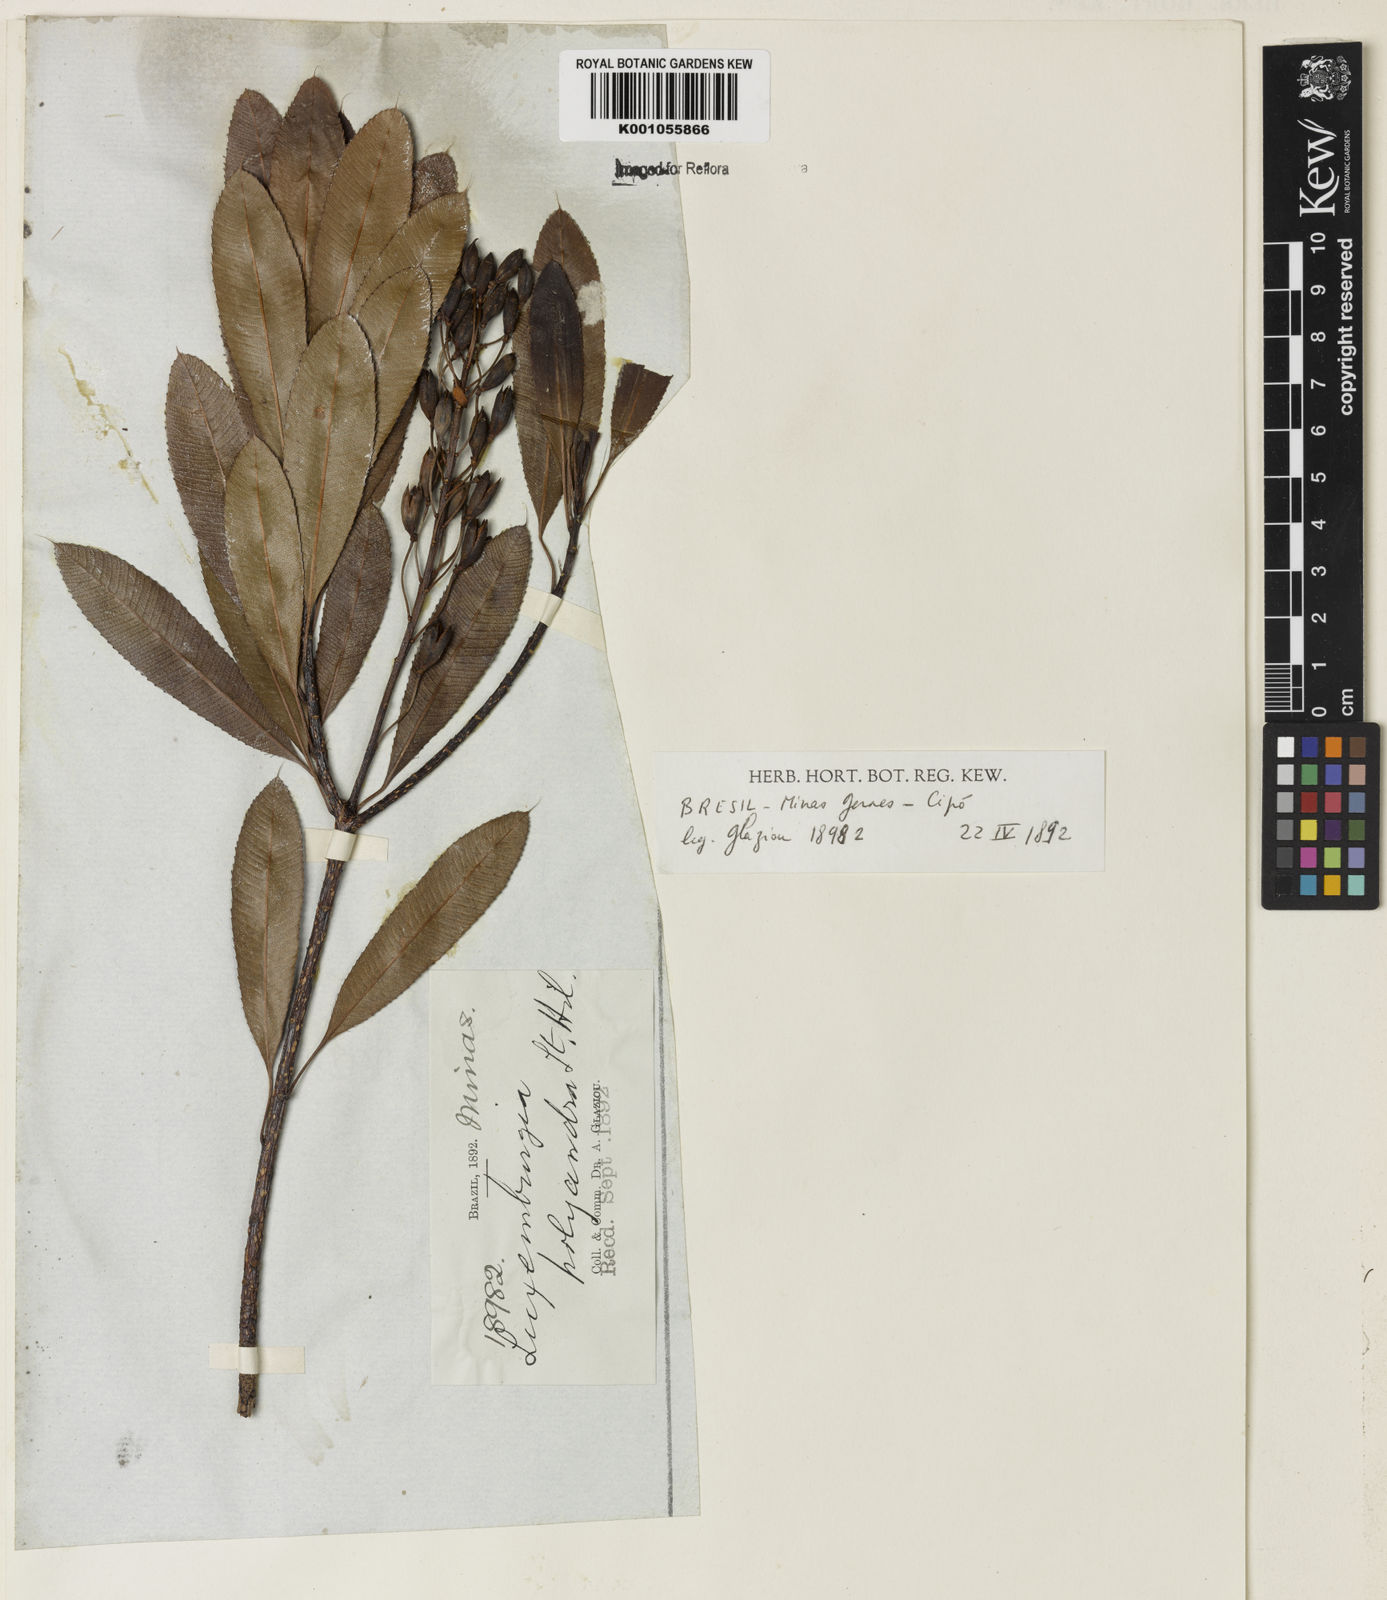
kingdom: Plantae
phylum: Tracheophyta
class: Magnoliopsida
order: Malpighiales
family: Ochnaceae
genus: Luxemburgia
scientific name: Luxemburgia polyandra
